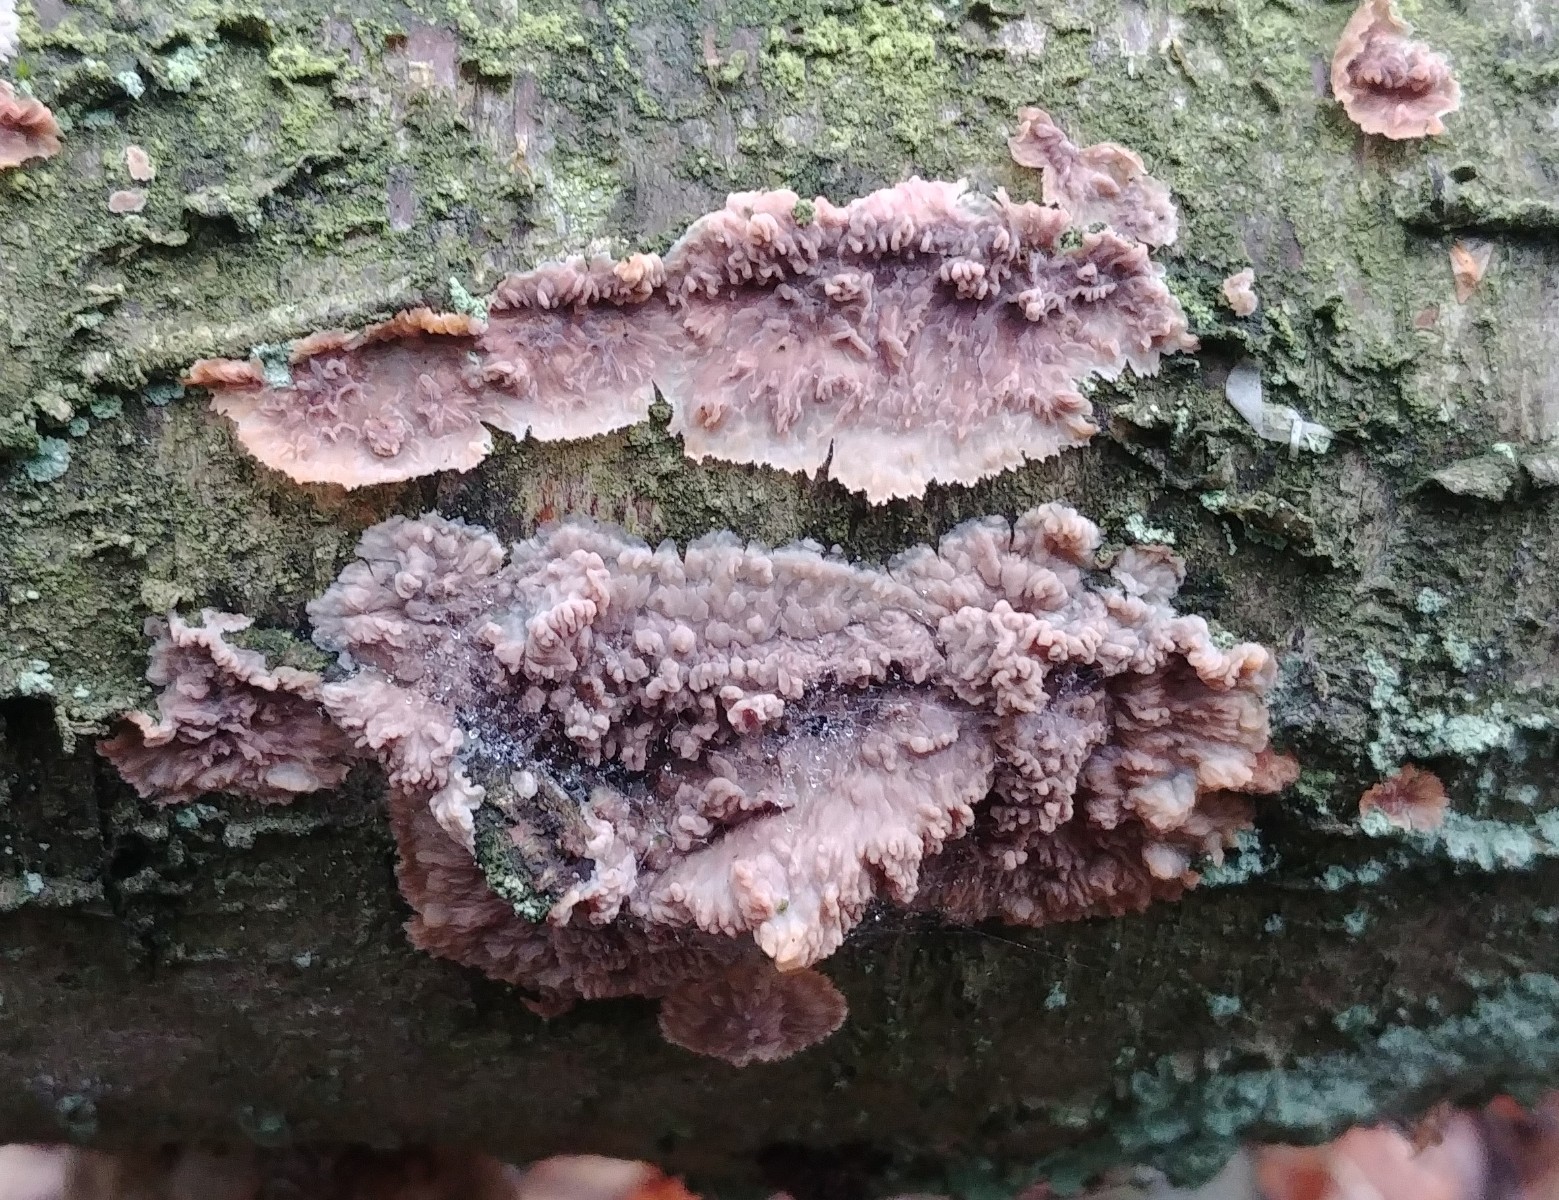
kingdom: Fungi
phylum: Basidiomycota
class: Agaricomycetes
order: Polyporales
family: Meruliaceae
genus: Phlebia
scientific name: Phlebia radiata
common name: stråle-åresvamp
